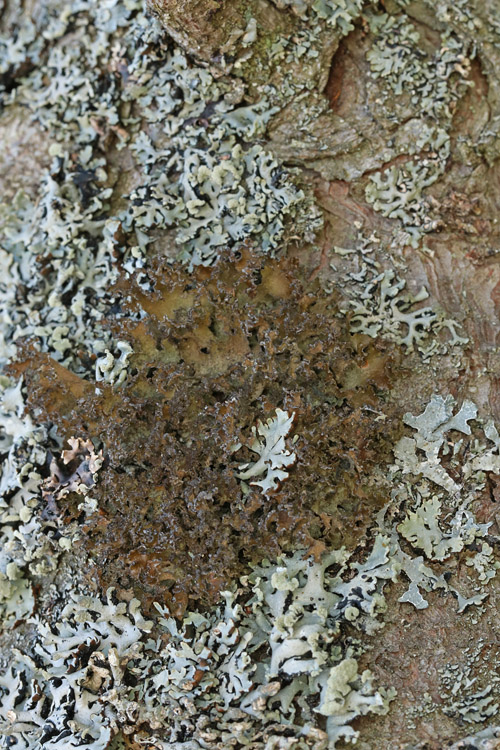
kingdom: Fungi
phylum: Ascomycota
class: Lecanoromycetes
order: Lecanorales
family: Parmeliaceae
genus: Nephromopsis
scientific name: Nephromopsis chlorophylla
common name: olivenbrun kruslav
